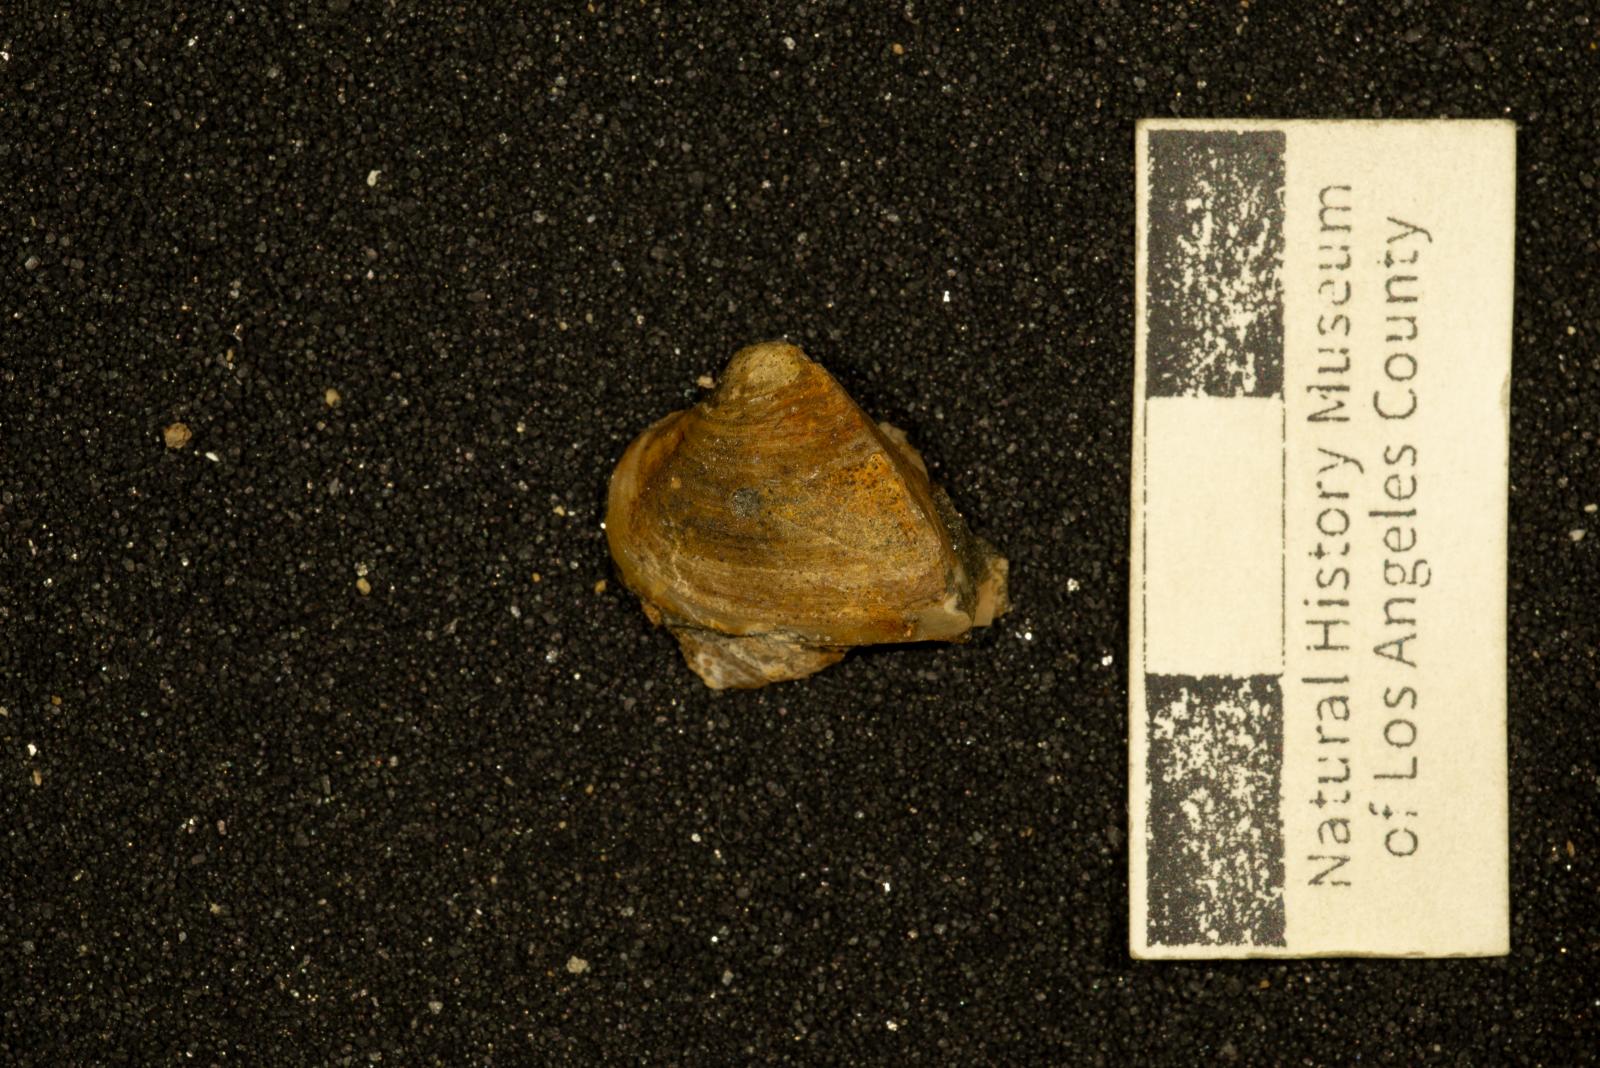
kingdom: Animalia
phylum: Mollusca
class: Bivalvia
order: Arcida
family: Noetiidae
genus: Trinacria
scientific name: Trinacria cor
